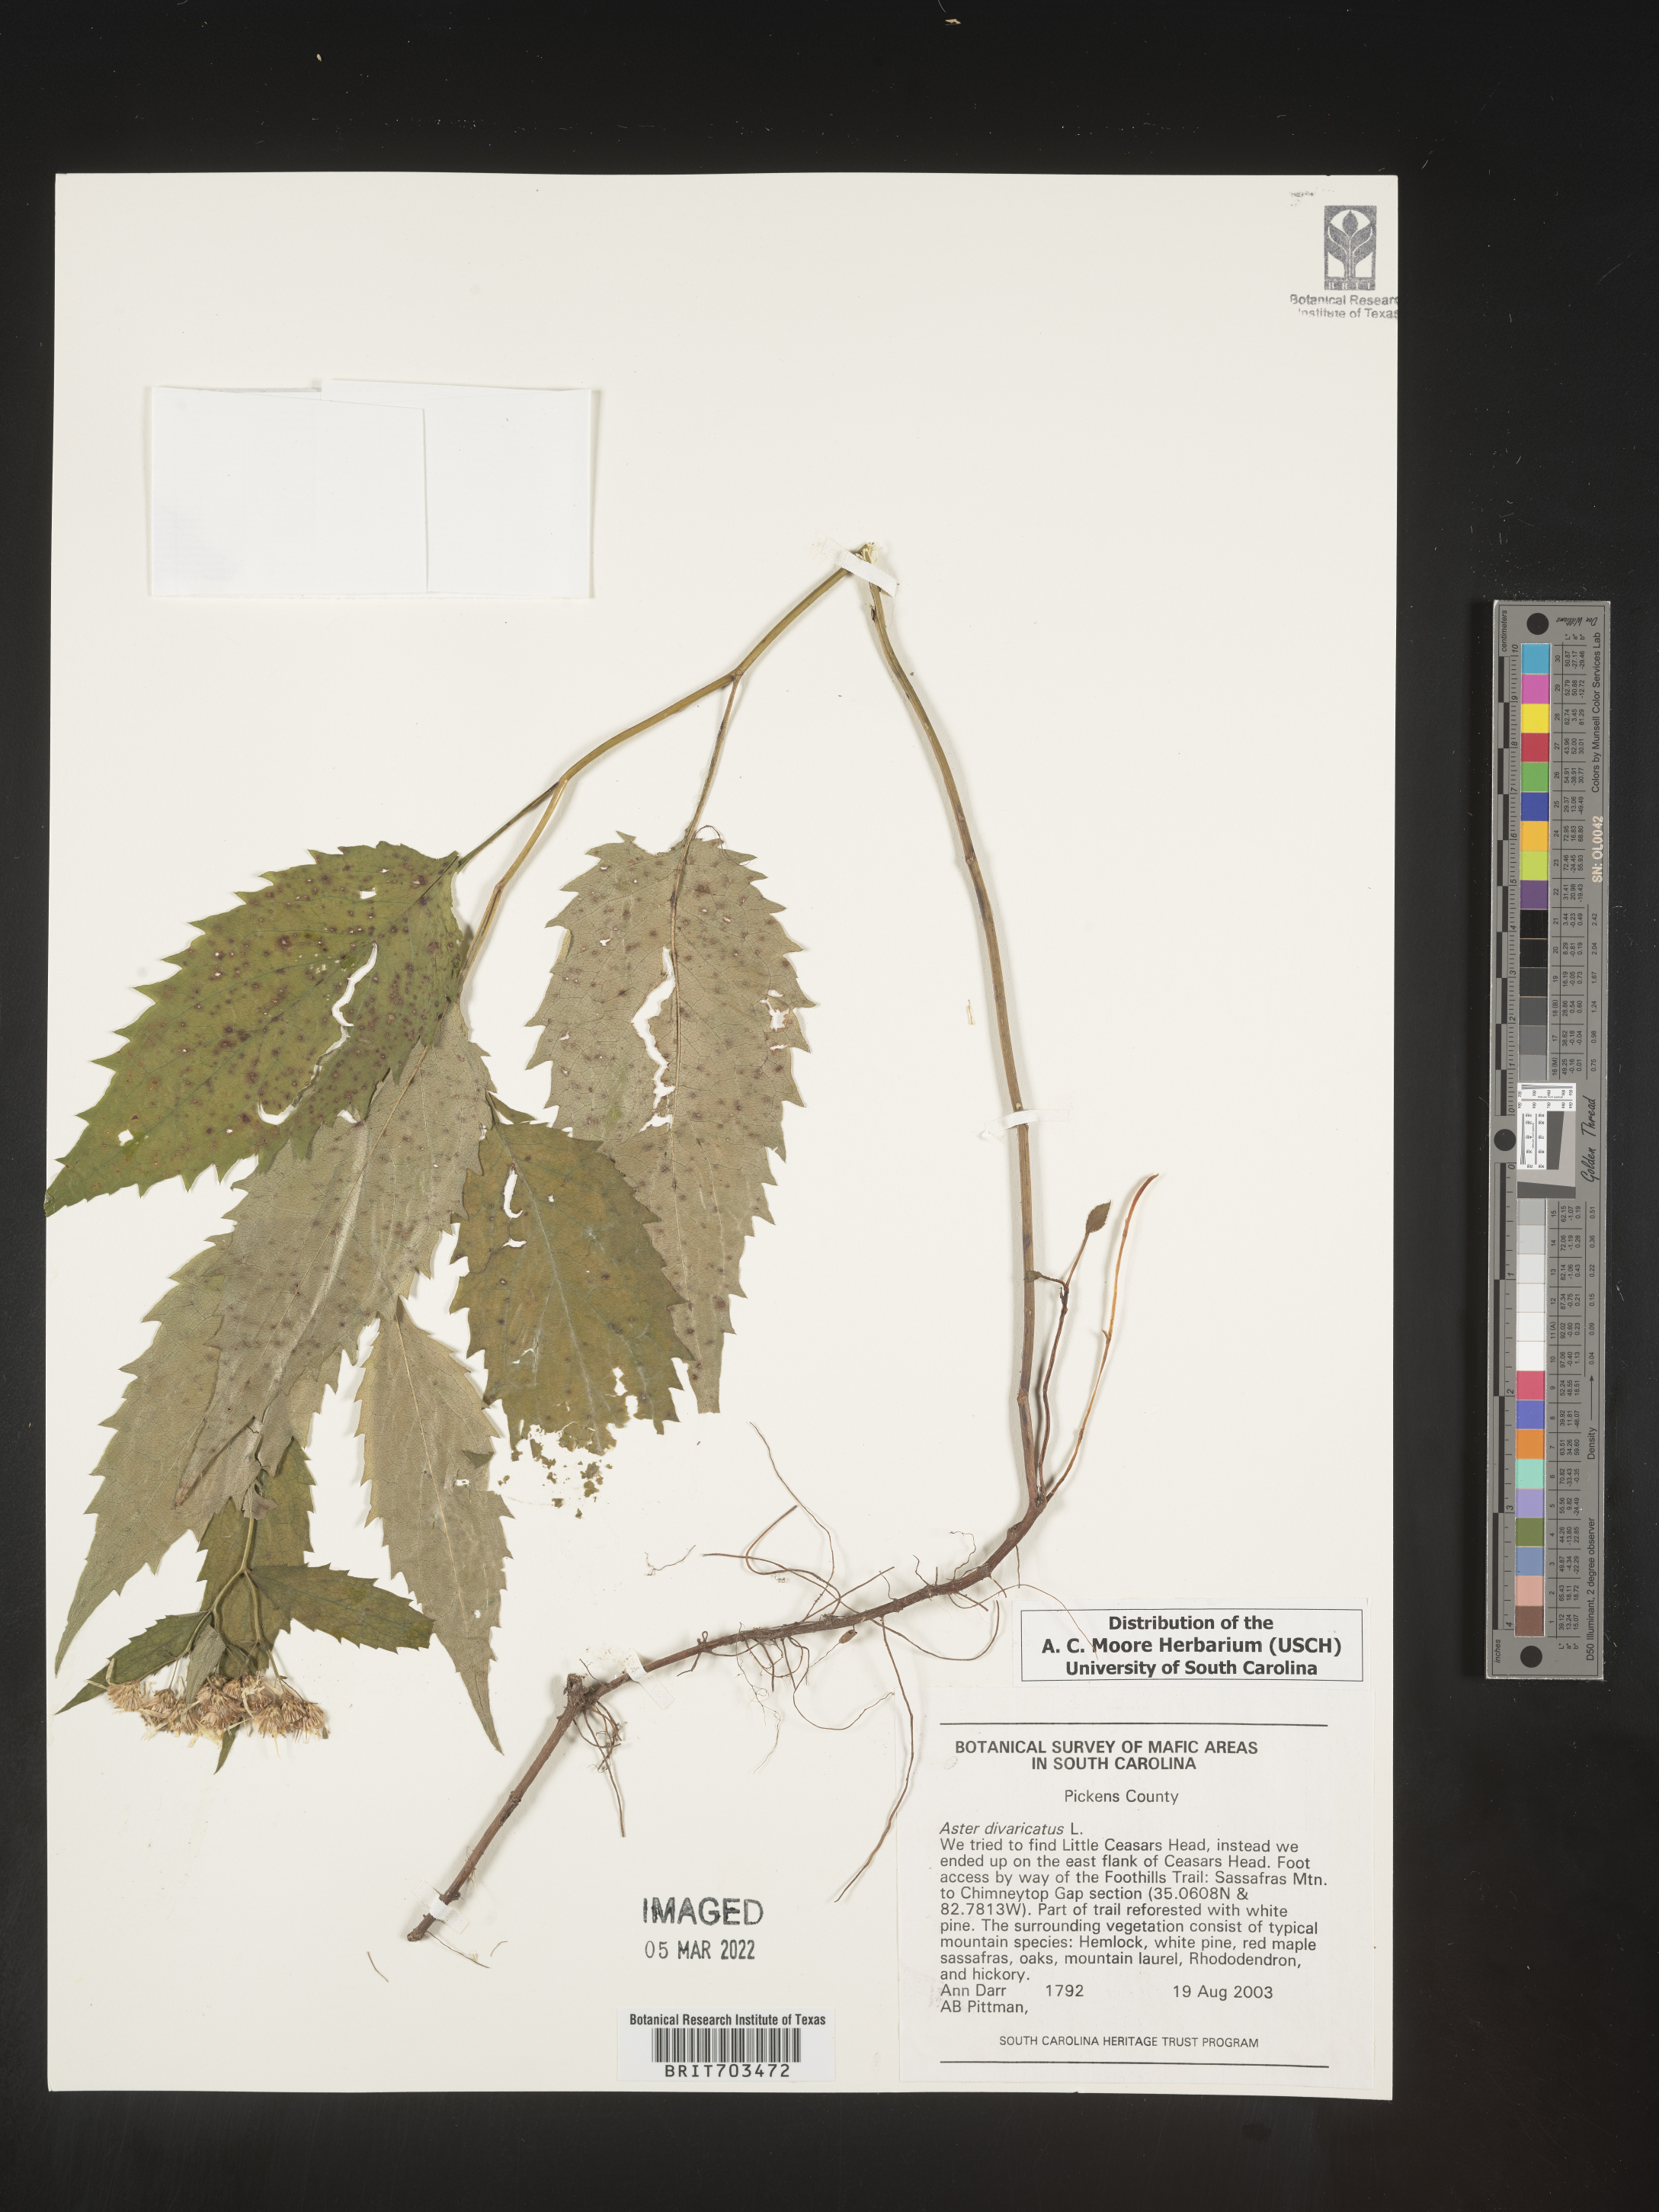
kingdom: Plantae
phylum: Tracheophyta
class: Magnoliopsida
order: Asterales
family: Asteraceae
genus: Eurybia
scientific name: Eurybia divaricata
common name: White wood aster
